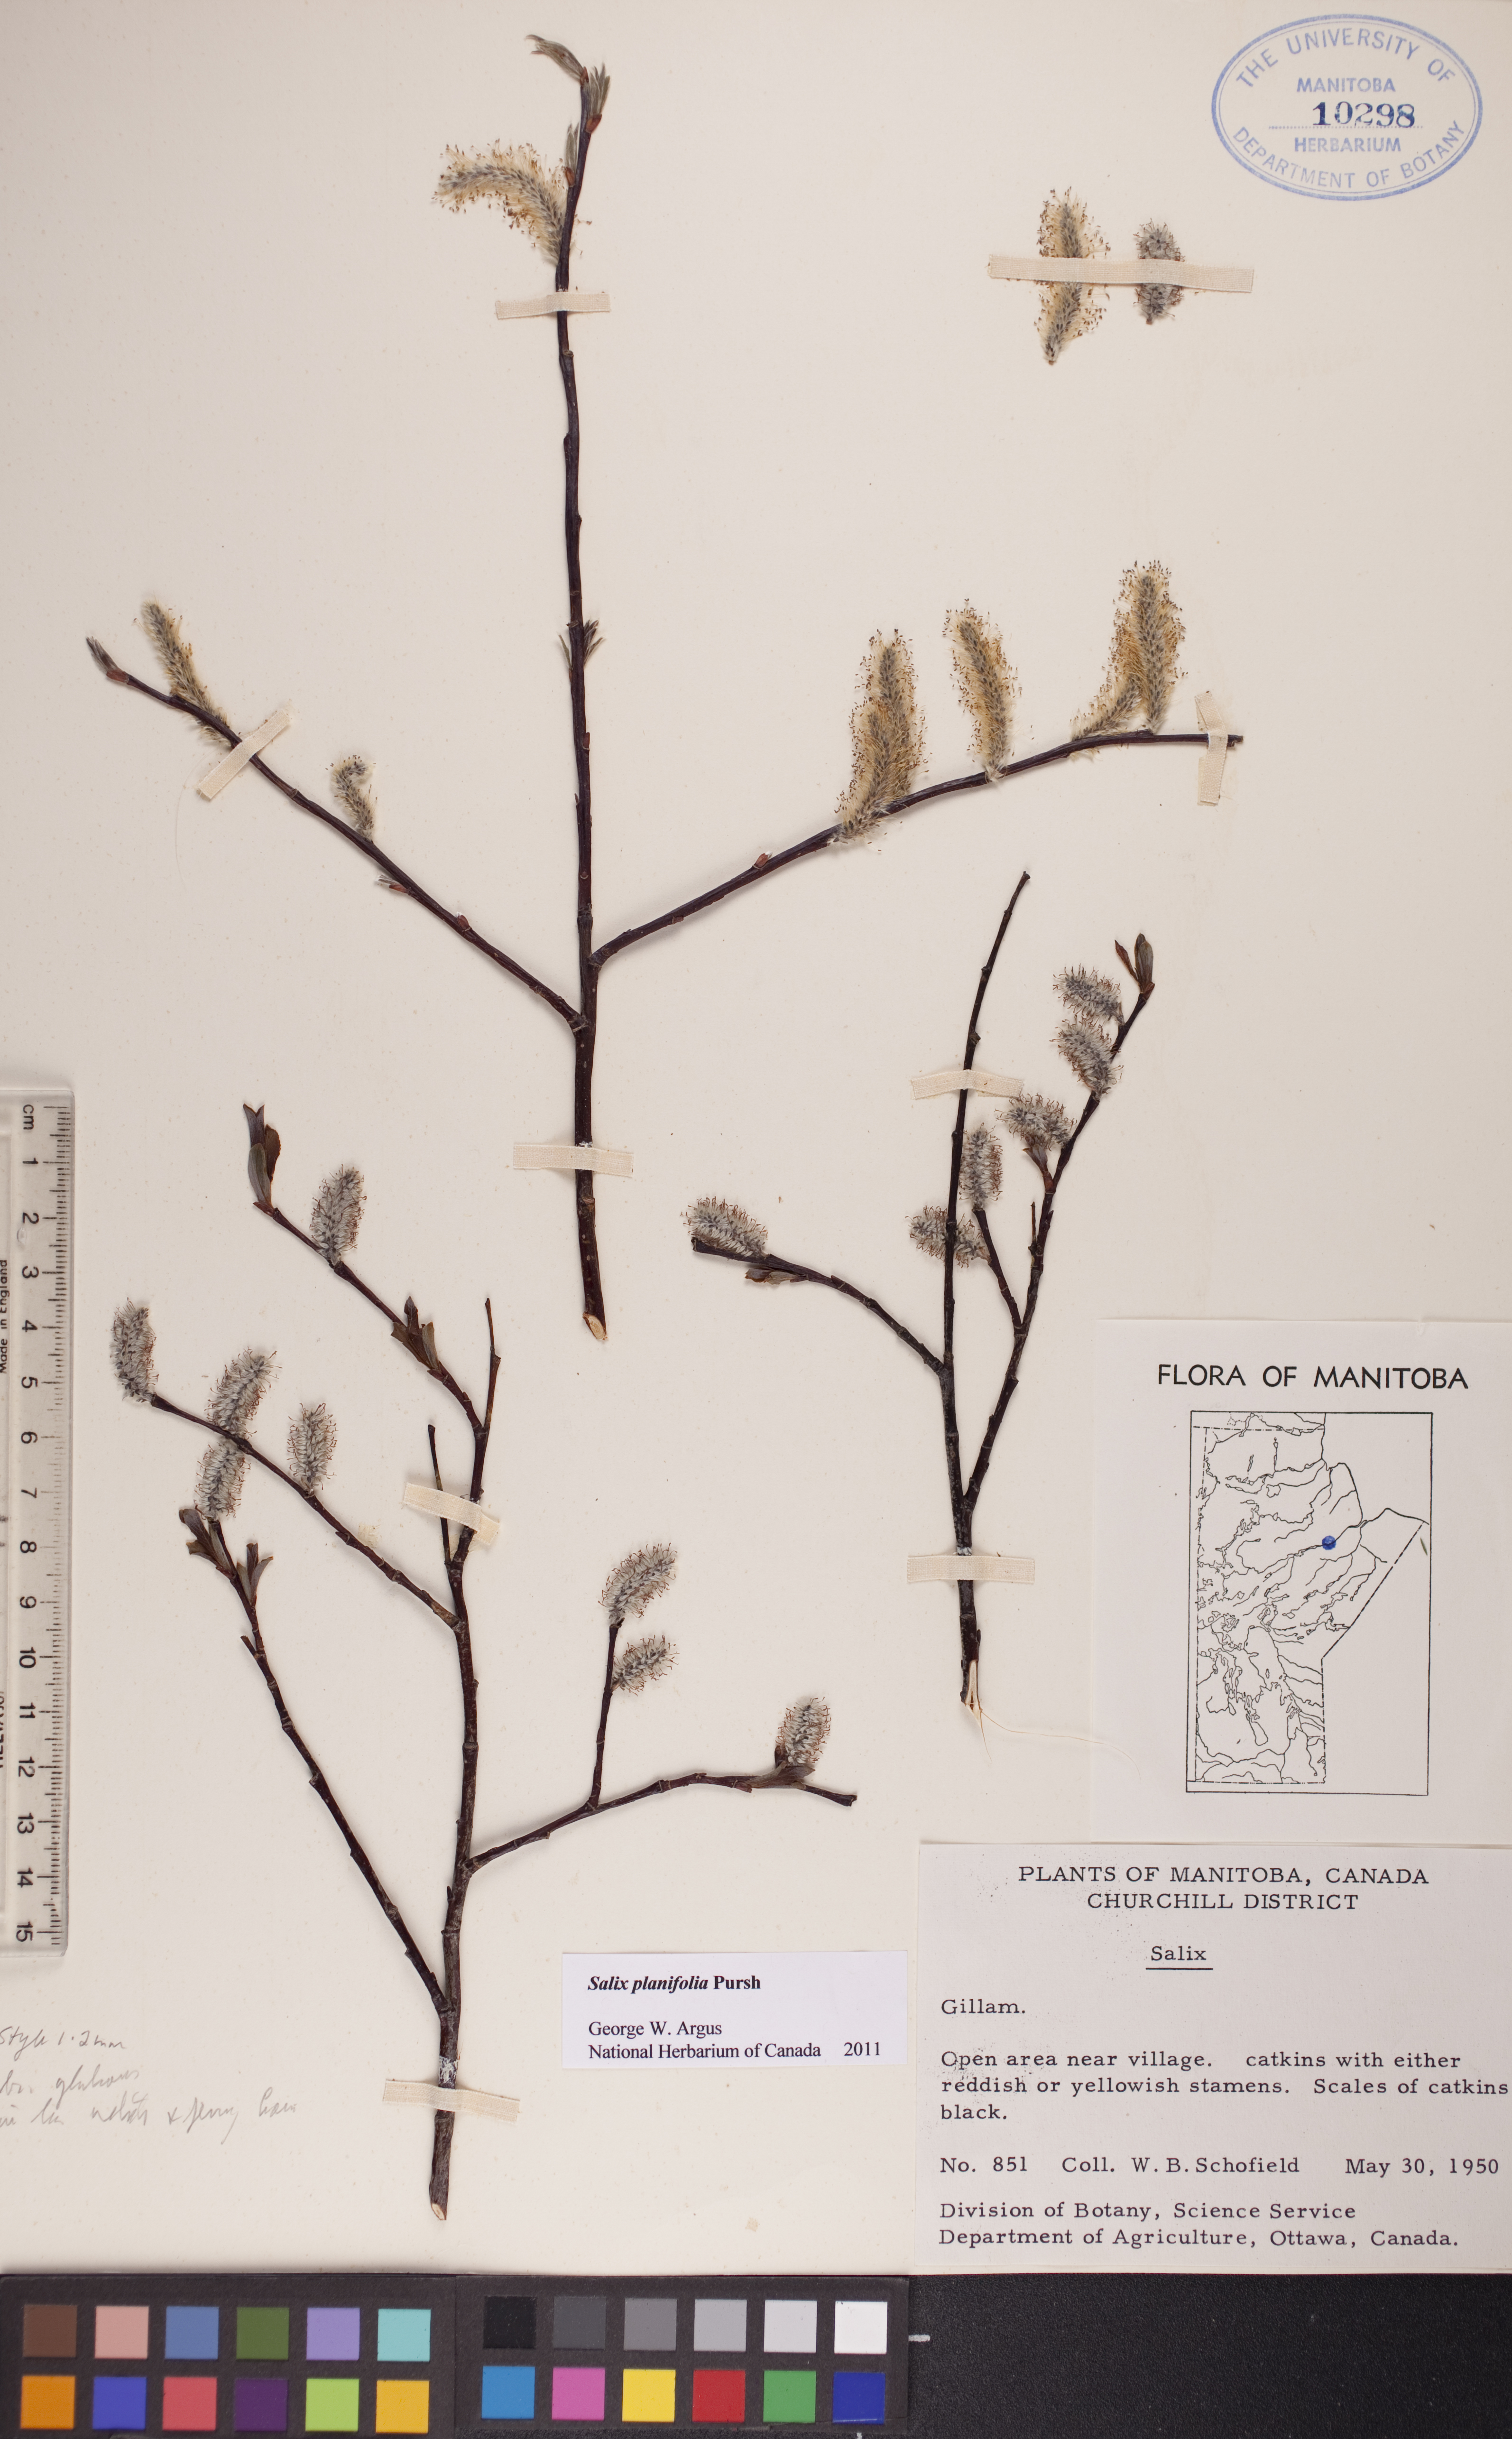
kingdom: Plantae
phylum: Tracheophyta
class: Magnoliopsida
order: Malpighiales
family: Salicaceae
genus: Salix
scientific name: Salix planifolia
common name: Mountain willow
